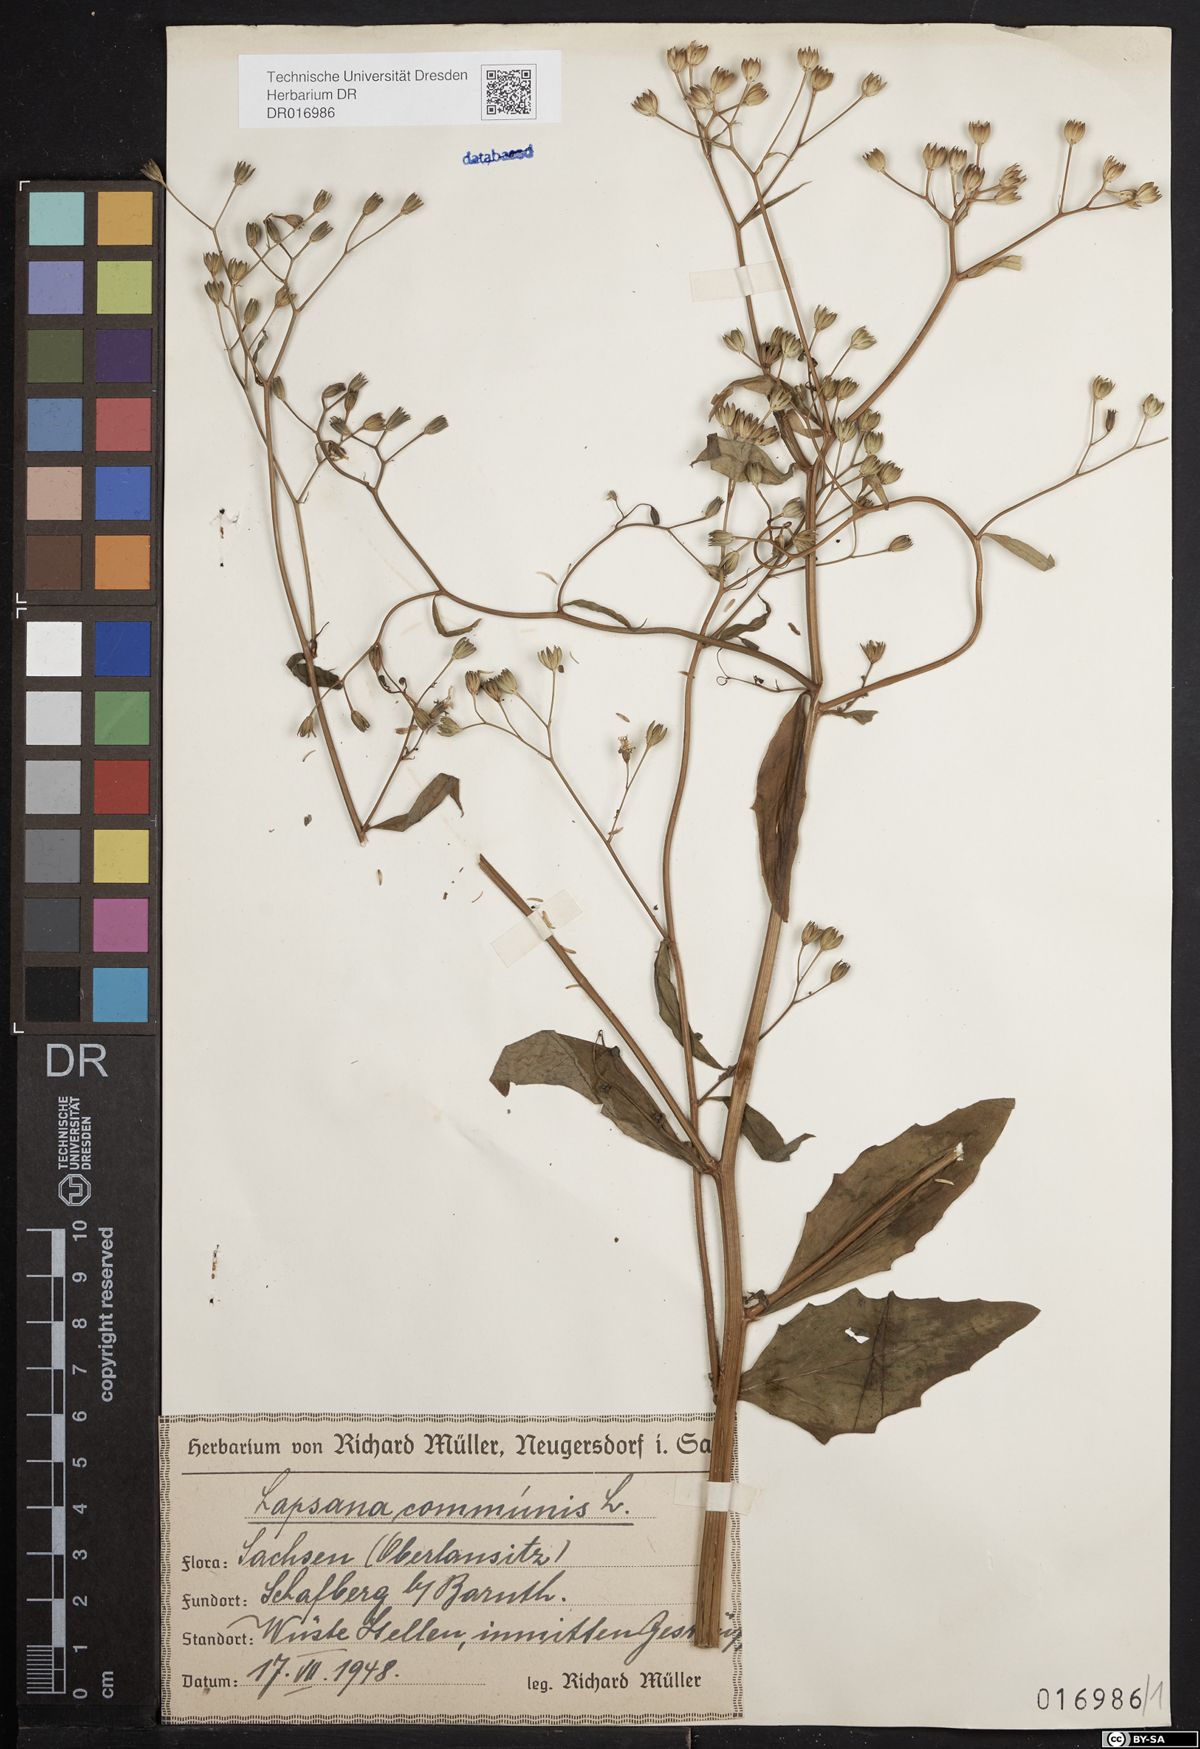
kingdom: Plantae
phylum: Tracheophyta
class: Magnoliopsida
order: Asterales
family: Asteraceae
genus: Lapsana
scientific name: Lapsana communis
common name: Nipplewort
